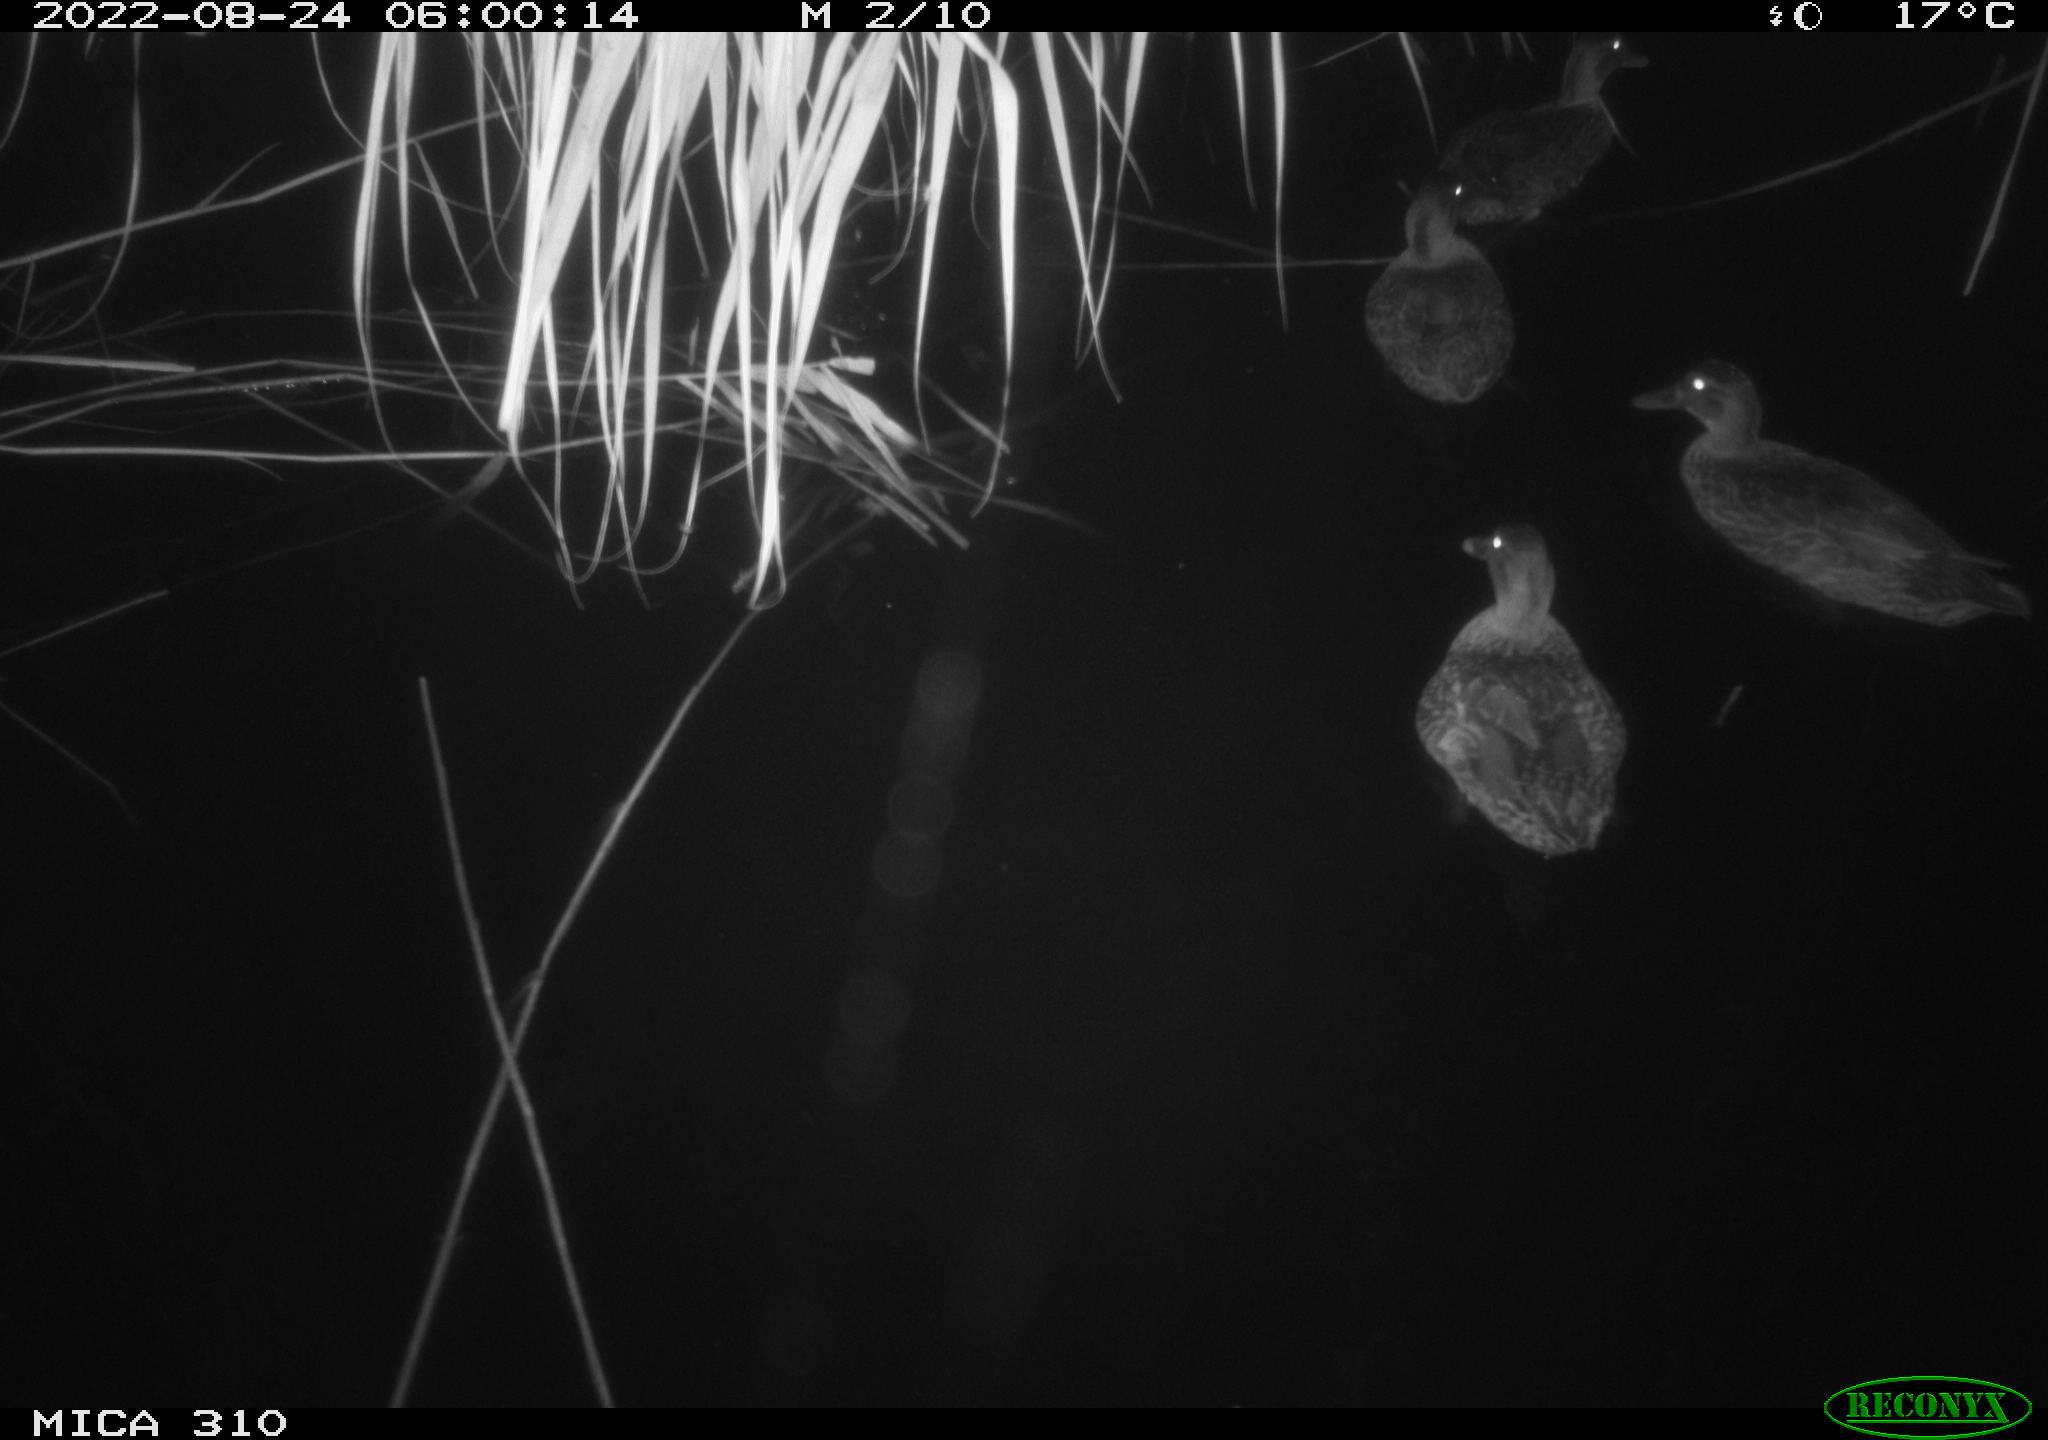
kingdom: Animalia
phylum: Chordata
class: Aves
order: Anseriformes
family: Anatidae
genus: Anas
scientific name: Anas platyrhynchos
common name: Mallard
